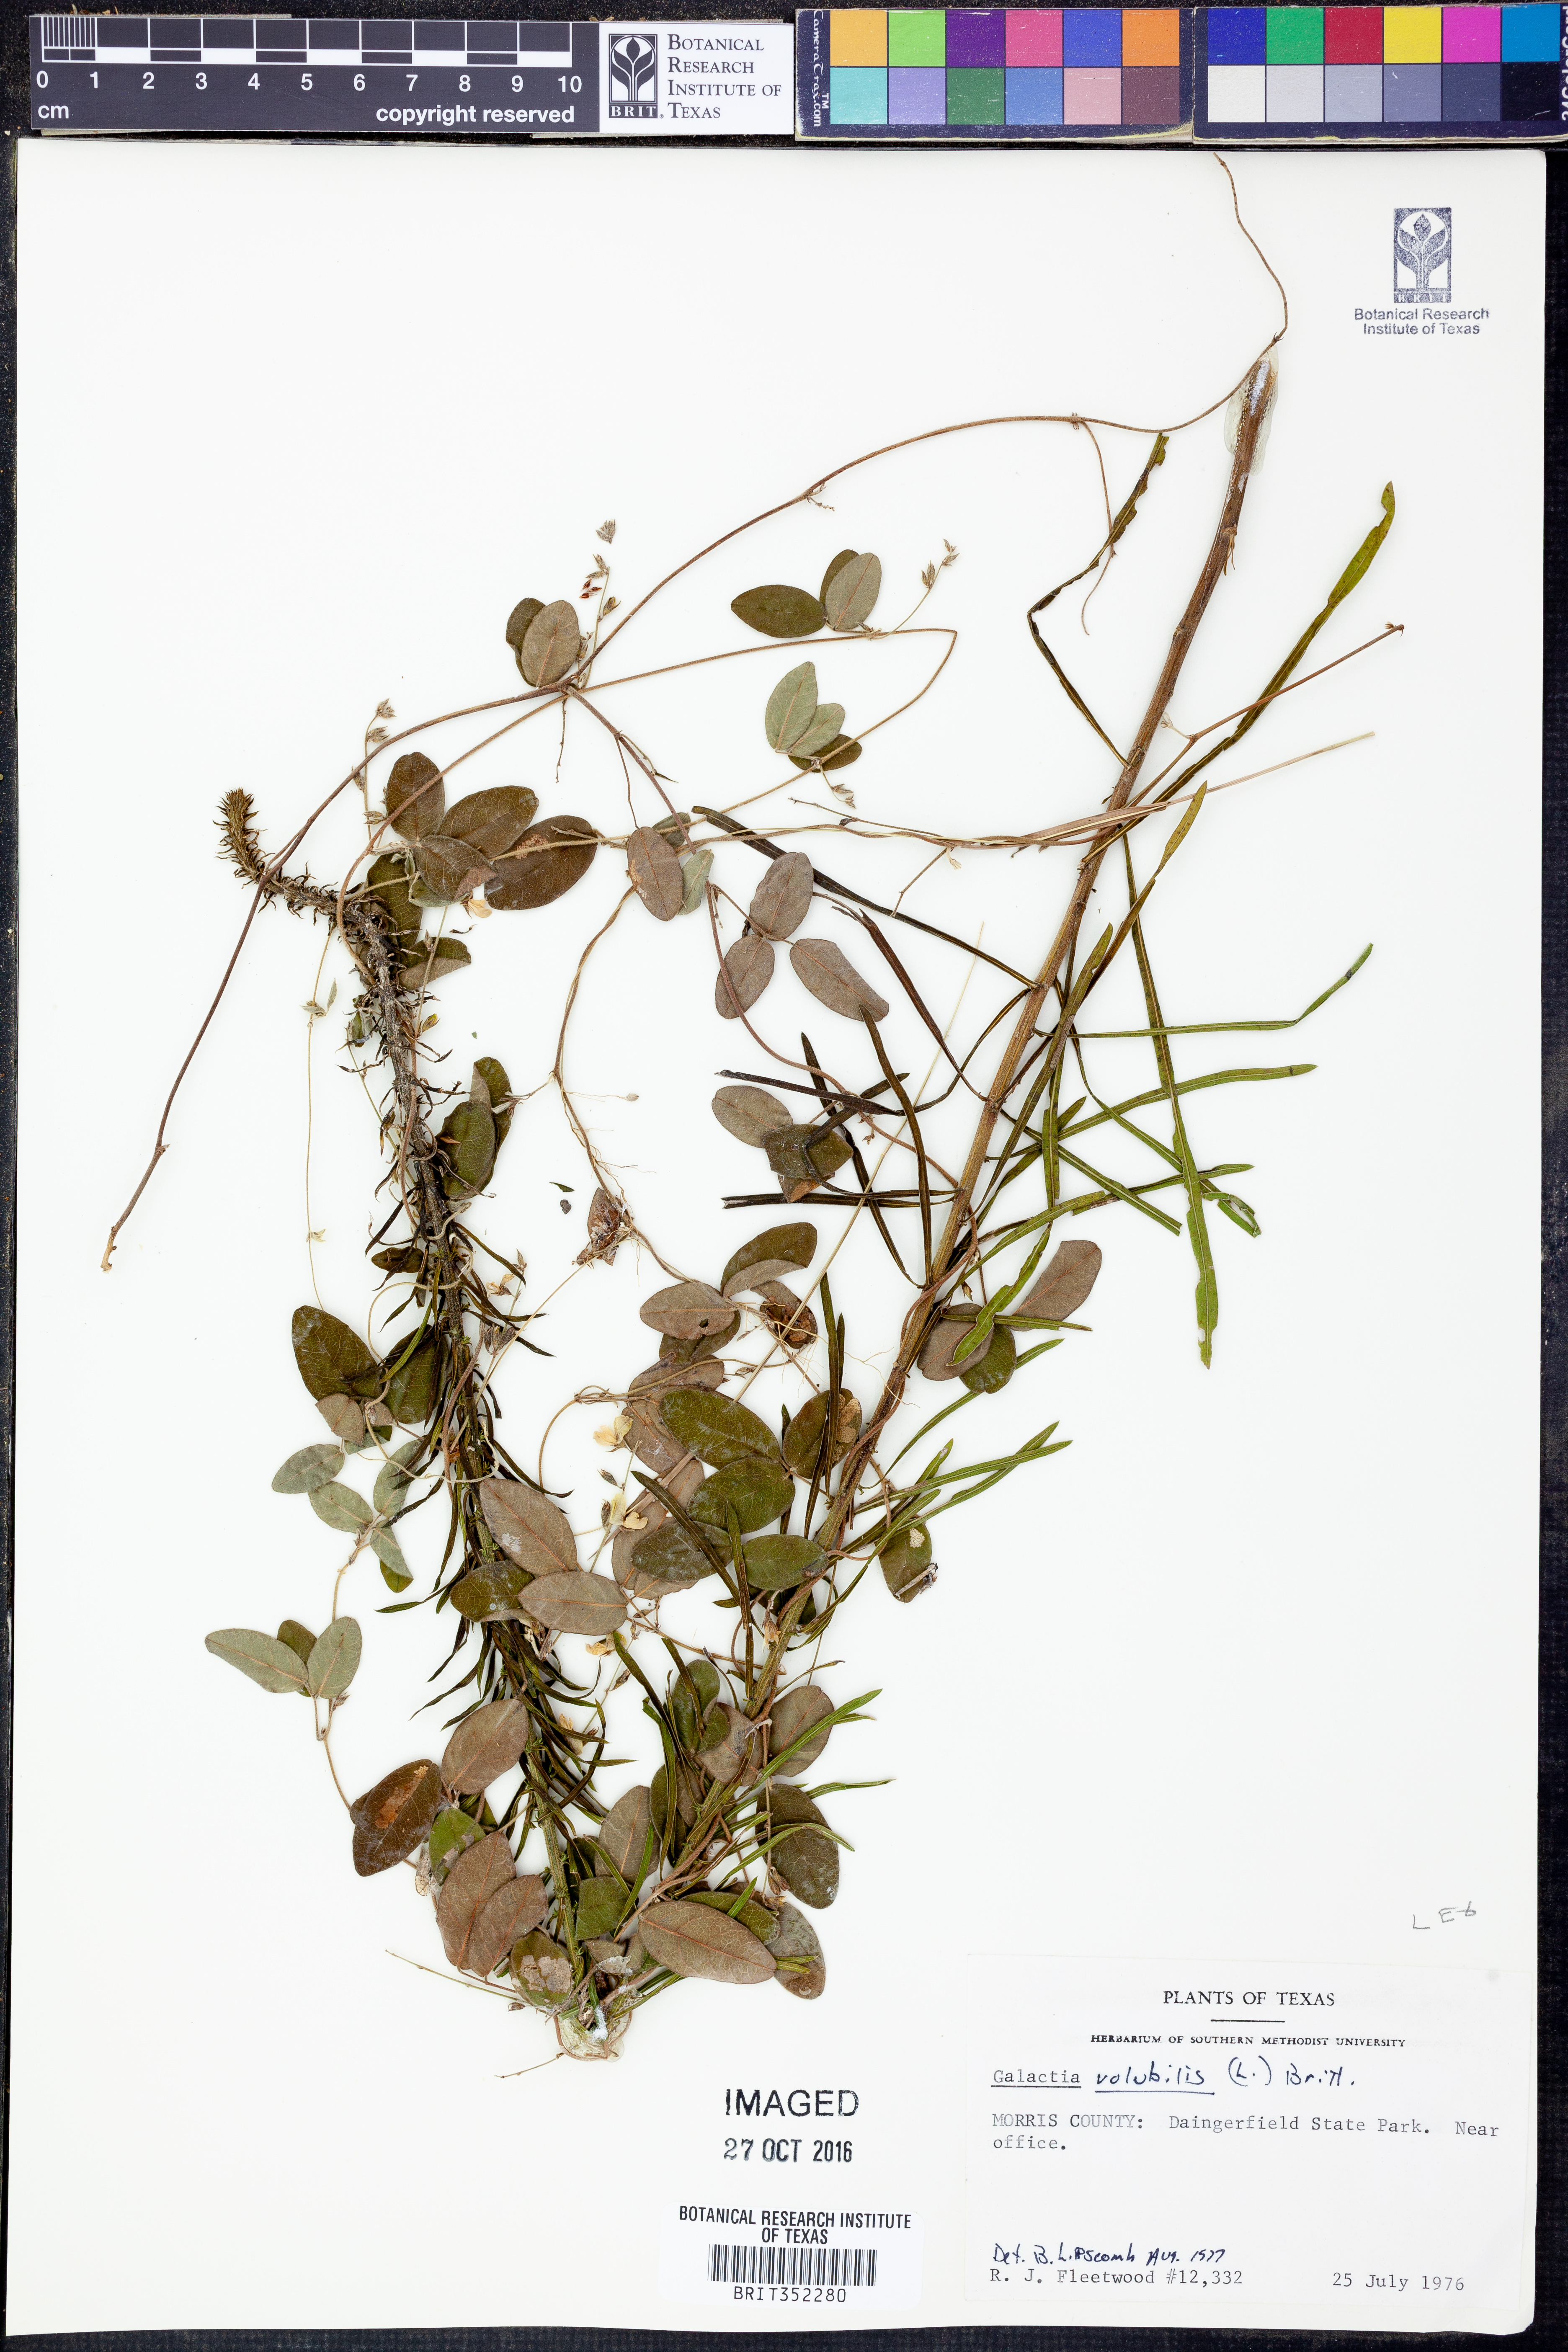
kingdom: Plantae
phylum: Tracheophyta
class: Magnoliopsida
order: Fabales
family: Fabaceae
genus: Galactia
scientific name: Galactia volubilis
